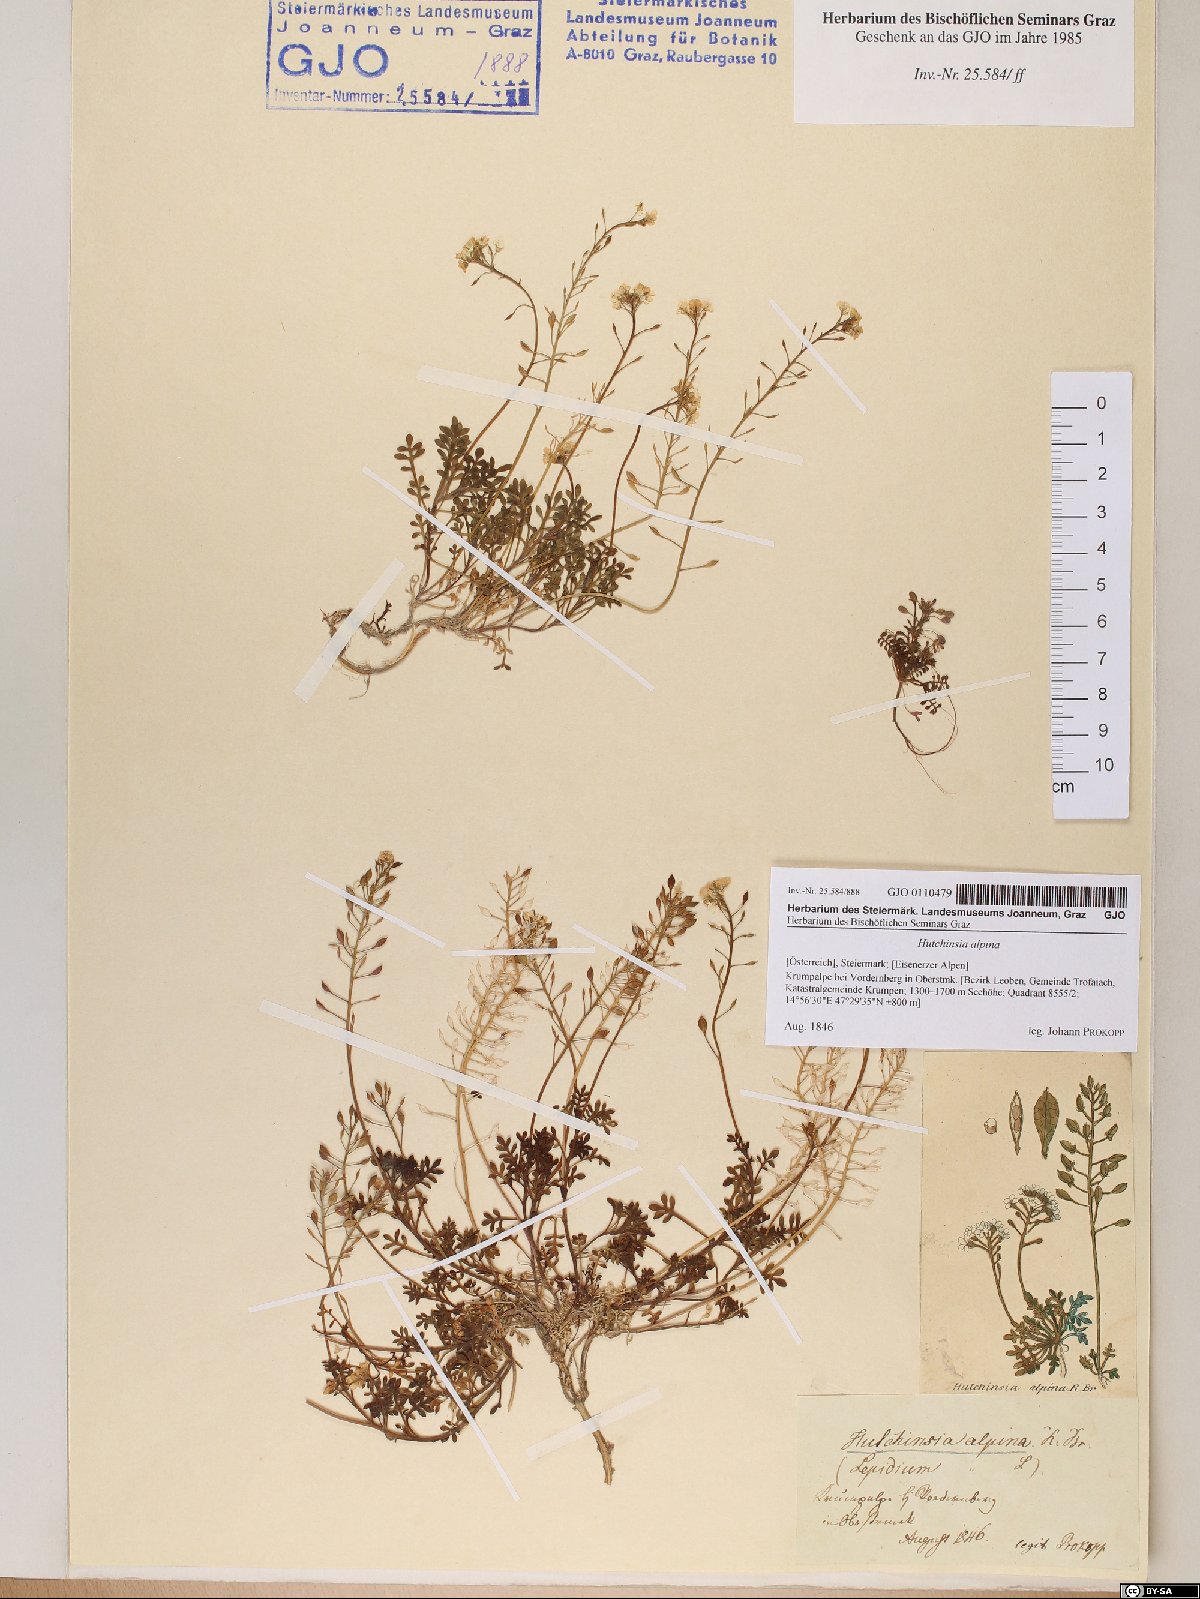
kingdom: Plantae
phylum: Tracheophyta
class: Magnoliopsida
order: Brassicales
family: Brassicaceae
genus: Hornungia
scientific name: Hornungia alpina
